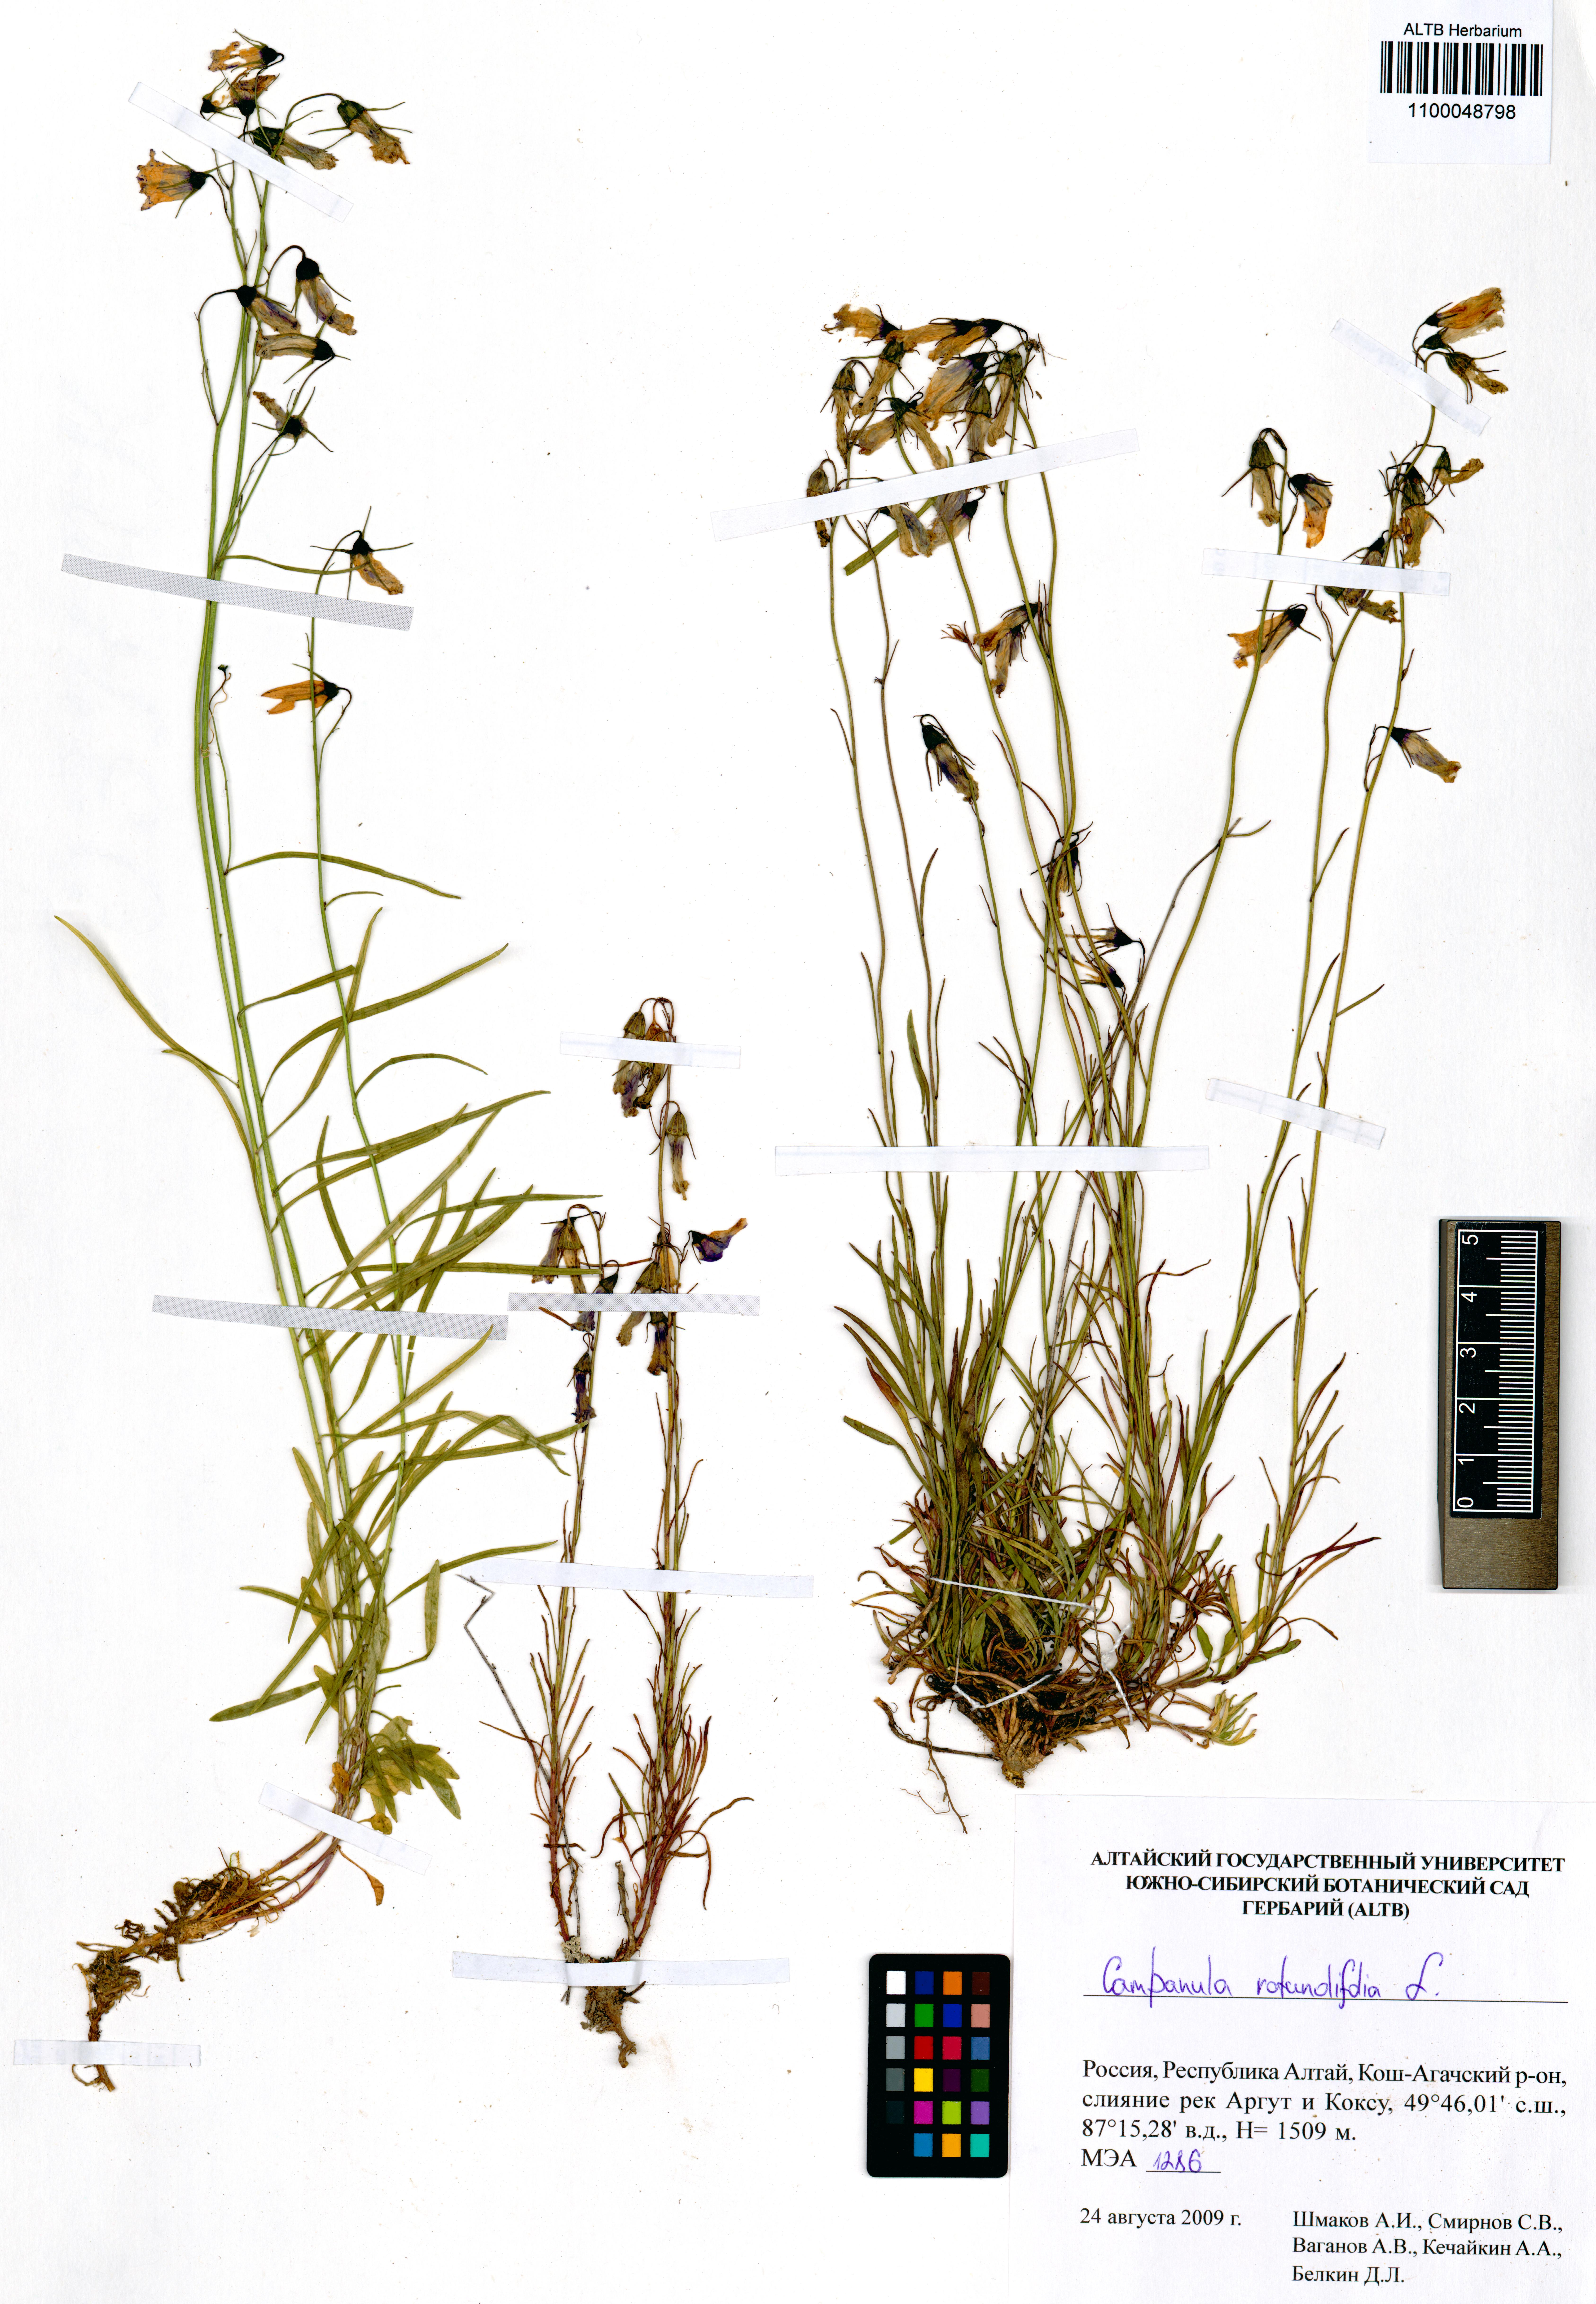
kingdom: Plantae
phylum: Tracheophyta
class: Magnoliopsida
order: Asterales
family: Campanulaceae
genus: Campanula
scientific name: Campanula rotundifolia
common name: Harebell
